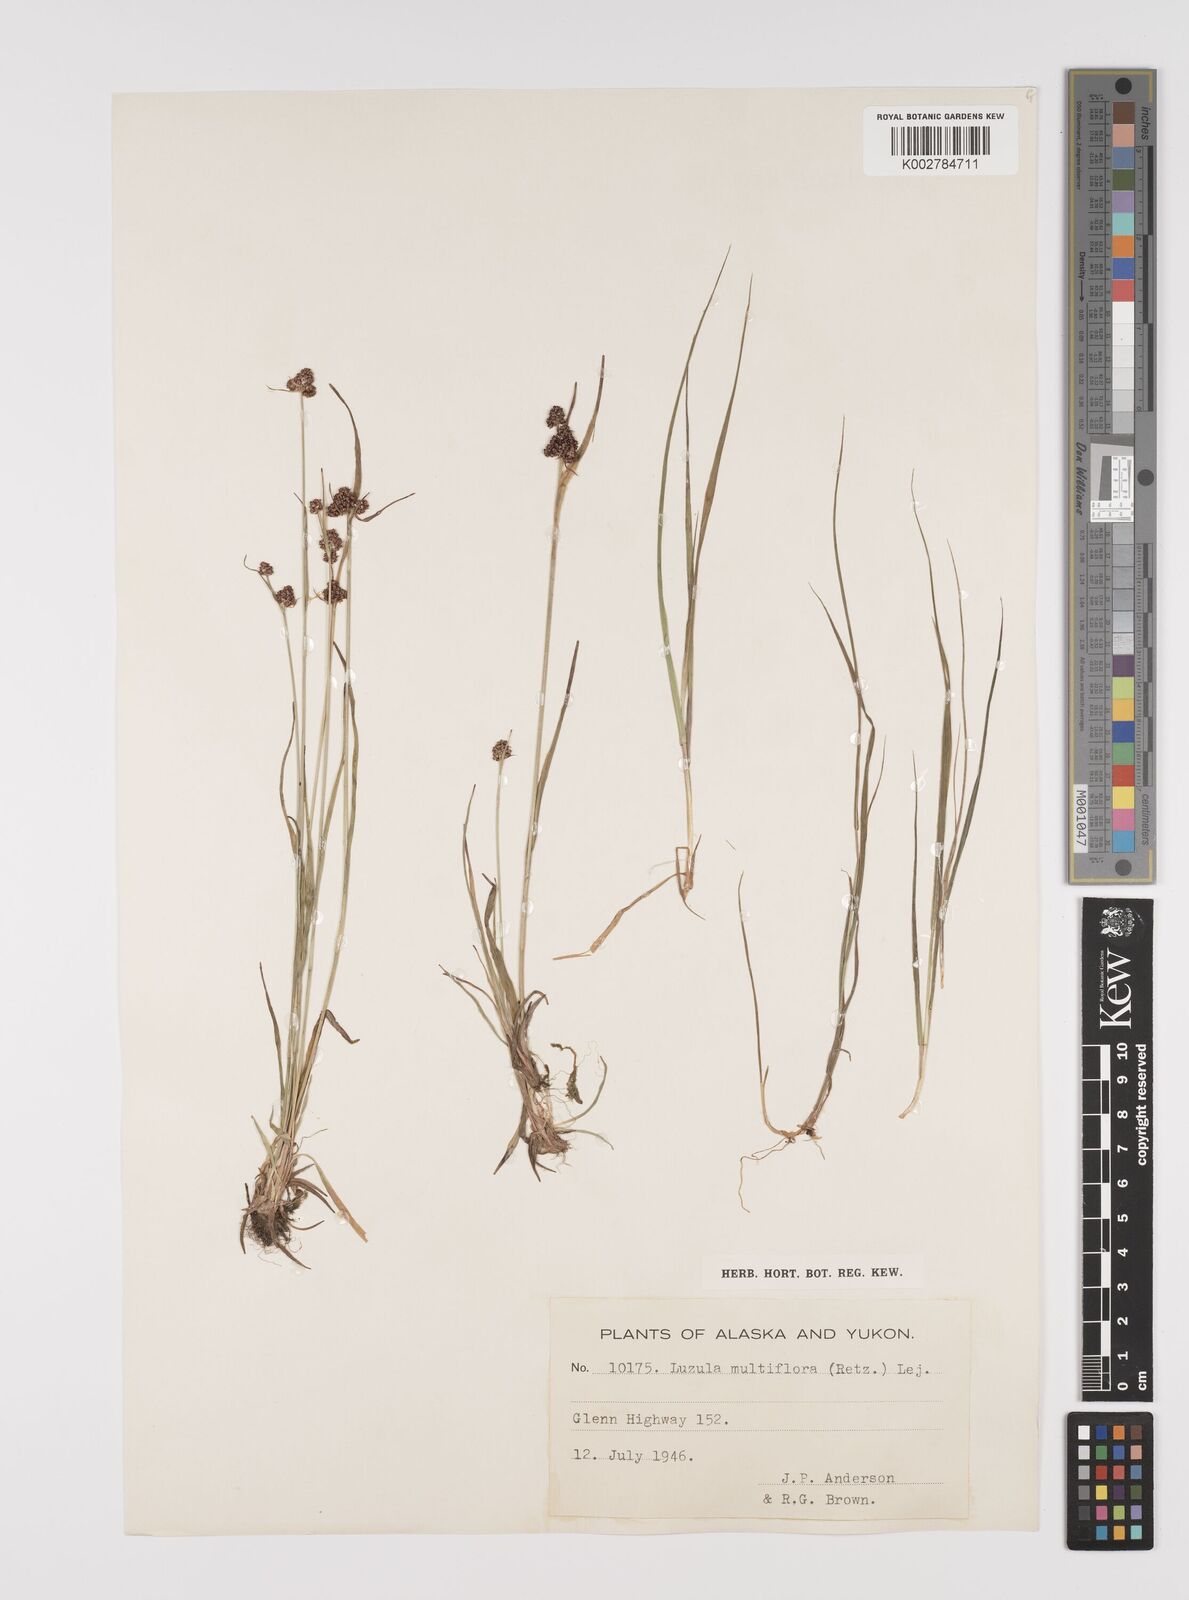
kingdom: Plantae
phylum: Tracheophyta
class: Liliopsida
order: Poales
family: Juncaceae
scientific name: Juncaceae
